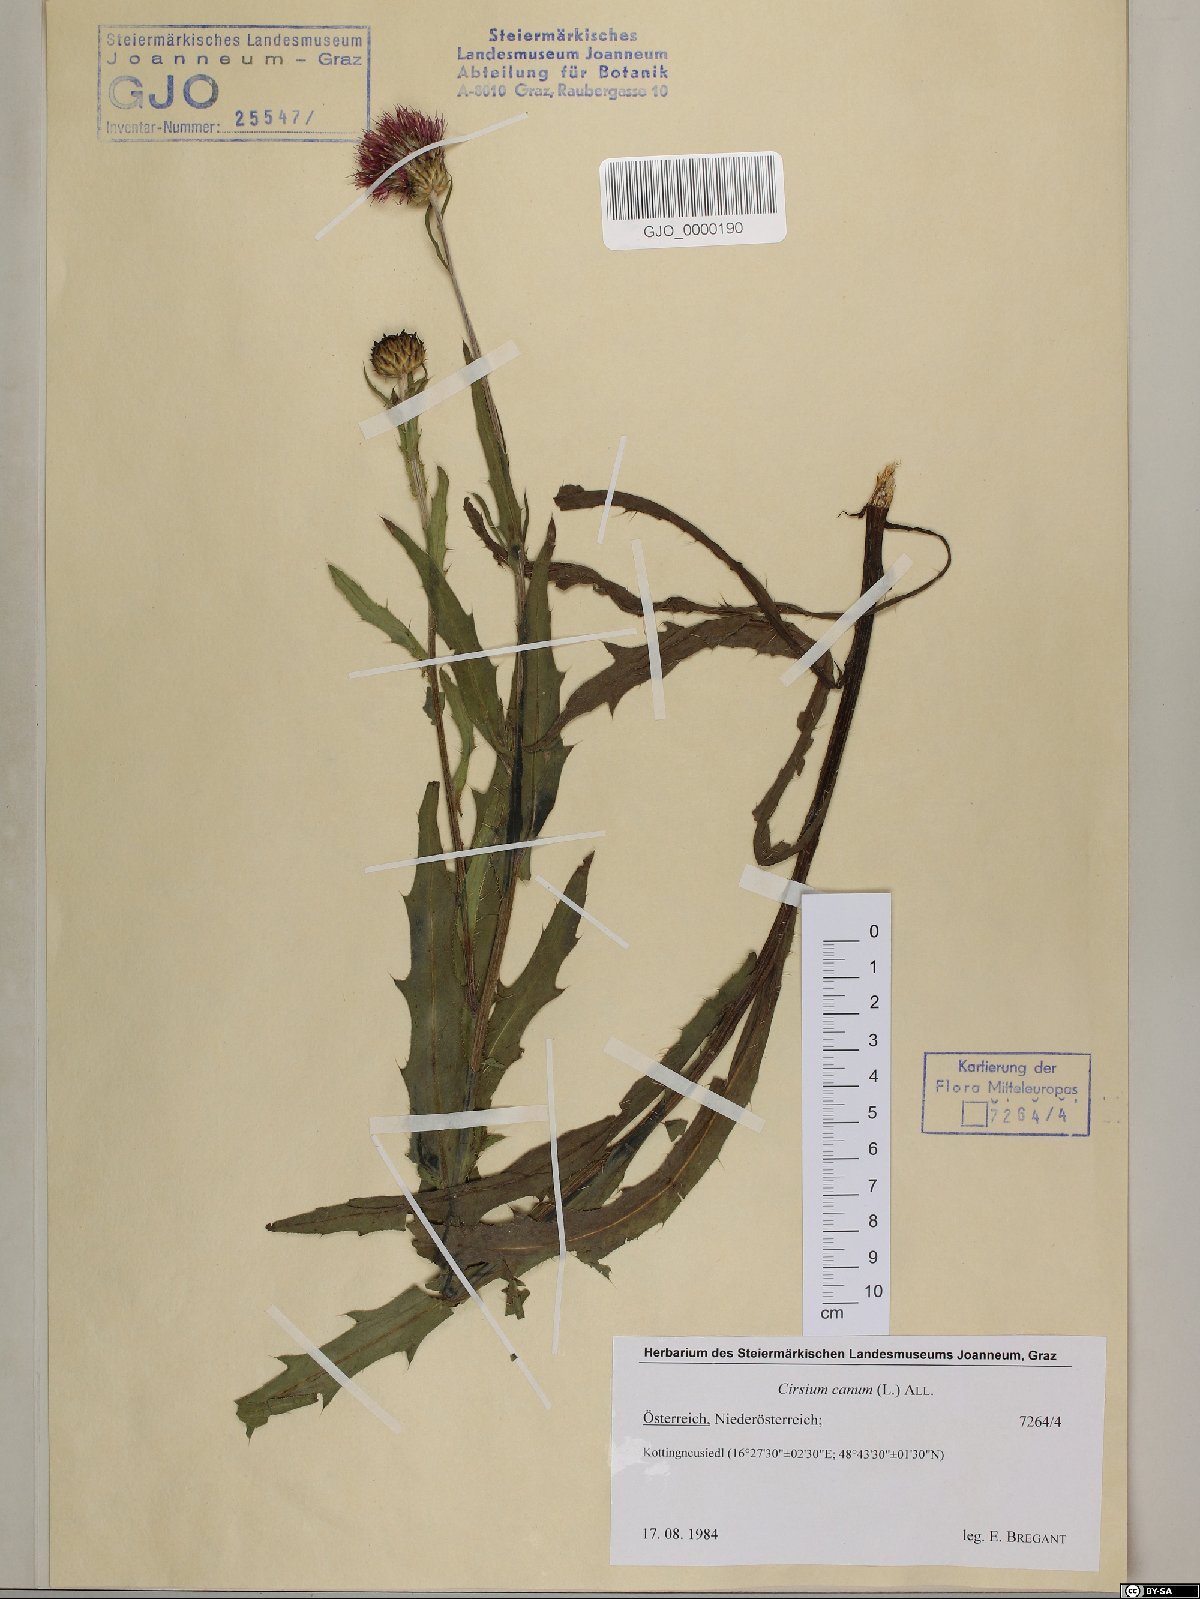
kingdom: Plantae
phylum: Tracheophyta
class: Magnoliopsida
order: Asterales
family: Asteraceae
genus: Cirsium
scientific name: Cirsium canum
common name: Queen anne's thistle
